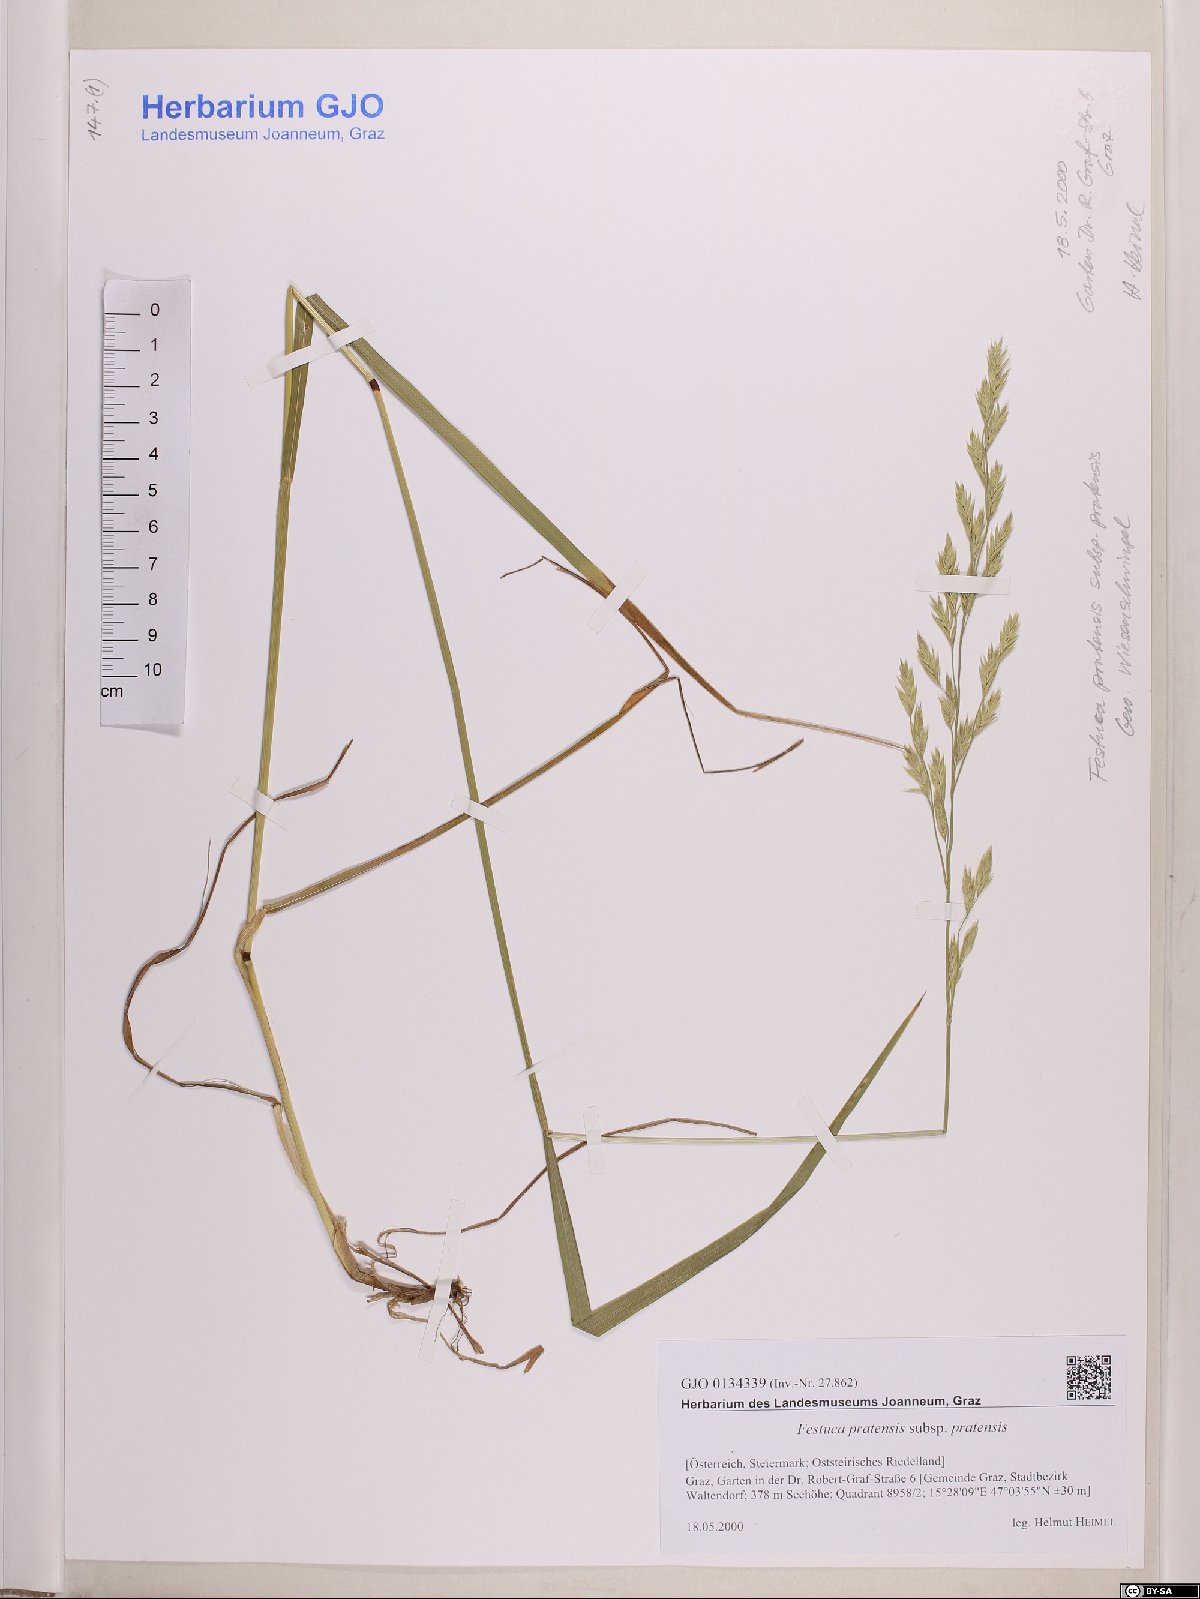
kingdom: Plantae
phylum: Tracheophyta
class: Liliopsida
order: Poales
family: Poaceae
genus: Lolium
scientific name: Lolium pratense
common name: Dover grass
